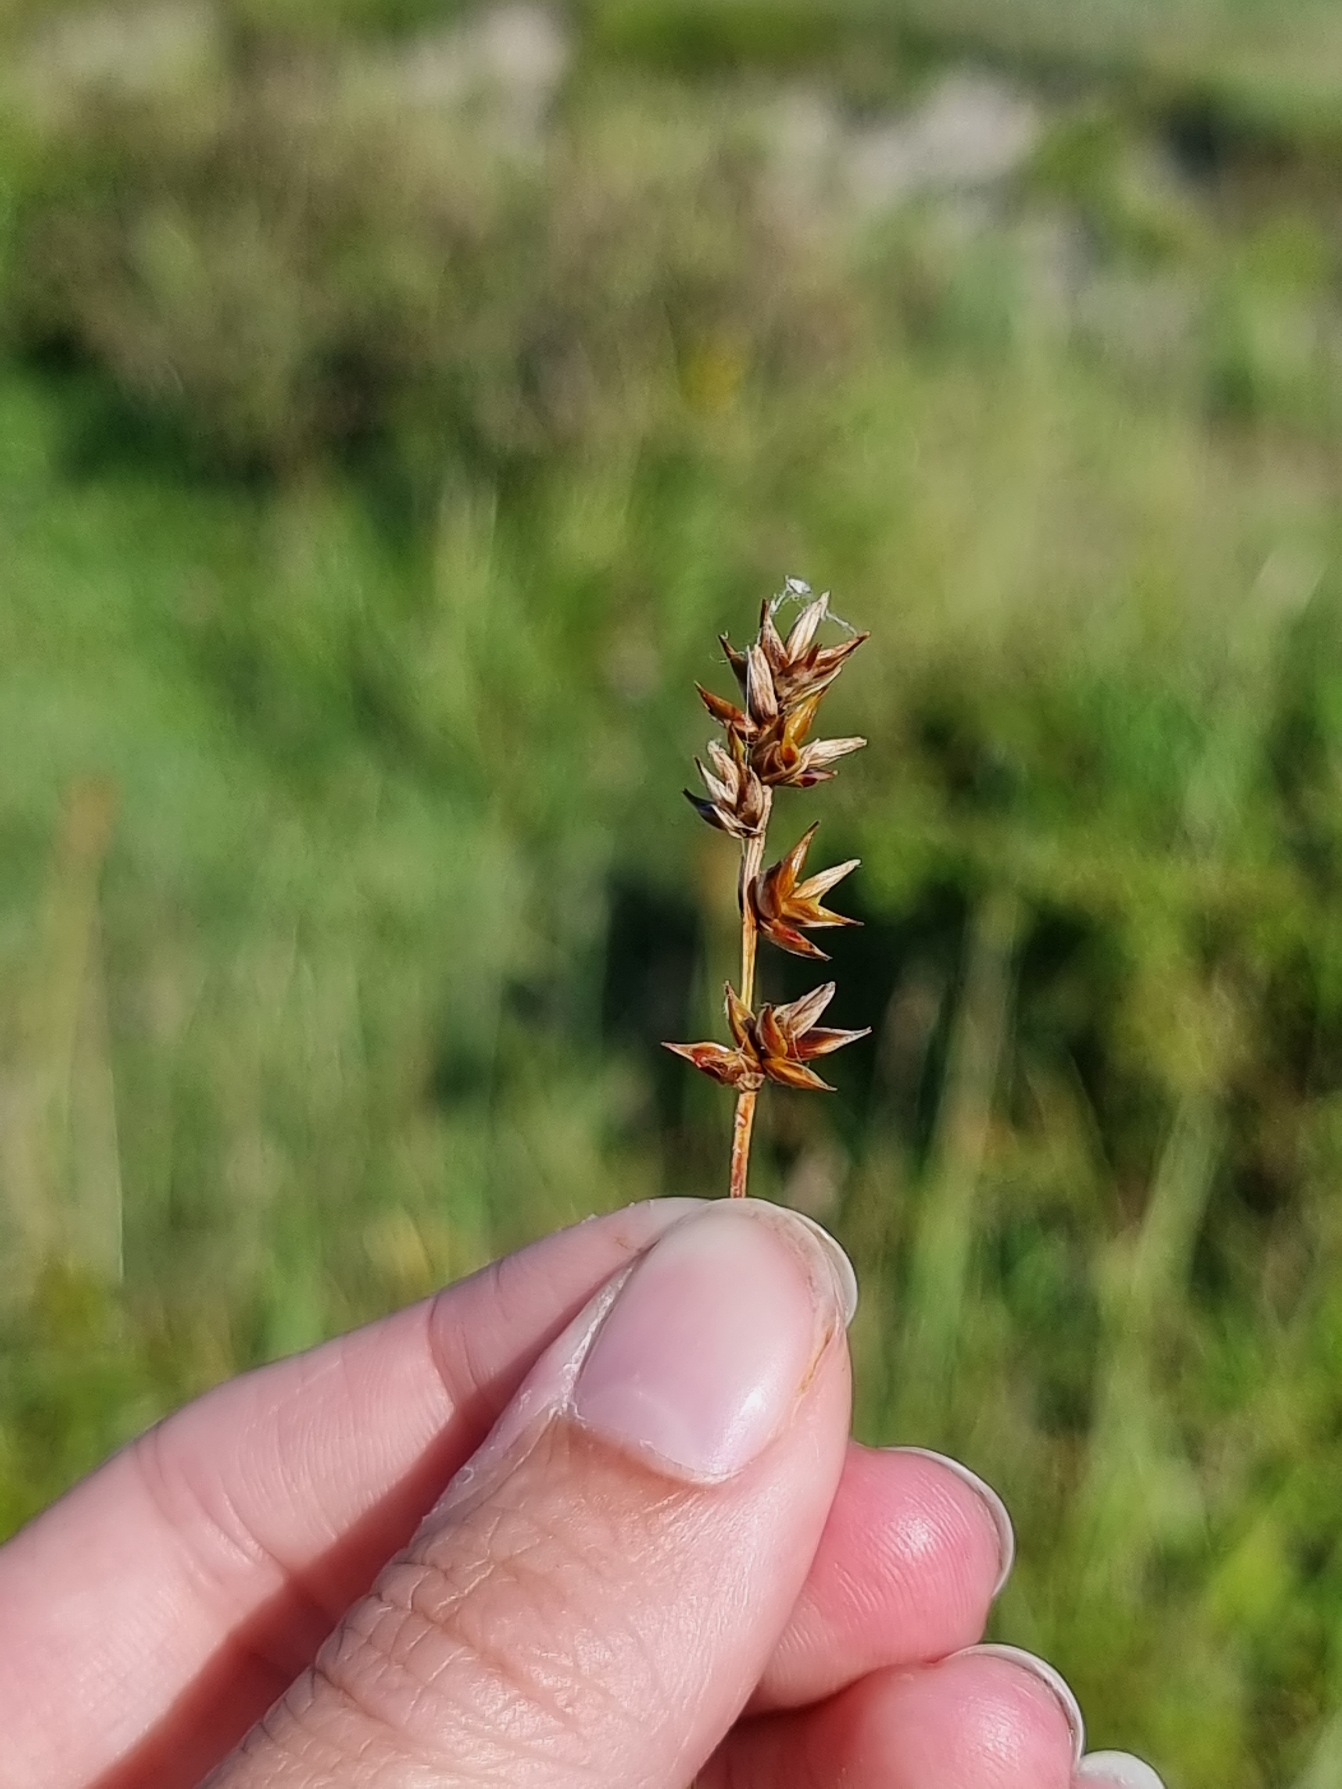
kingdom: Plantae
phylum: Tracheophyta
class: Liliopsida
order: Poales
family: Cyperaceae
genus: Carex
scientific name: Carex echinata
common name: Stjerne-star
